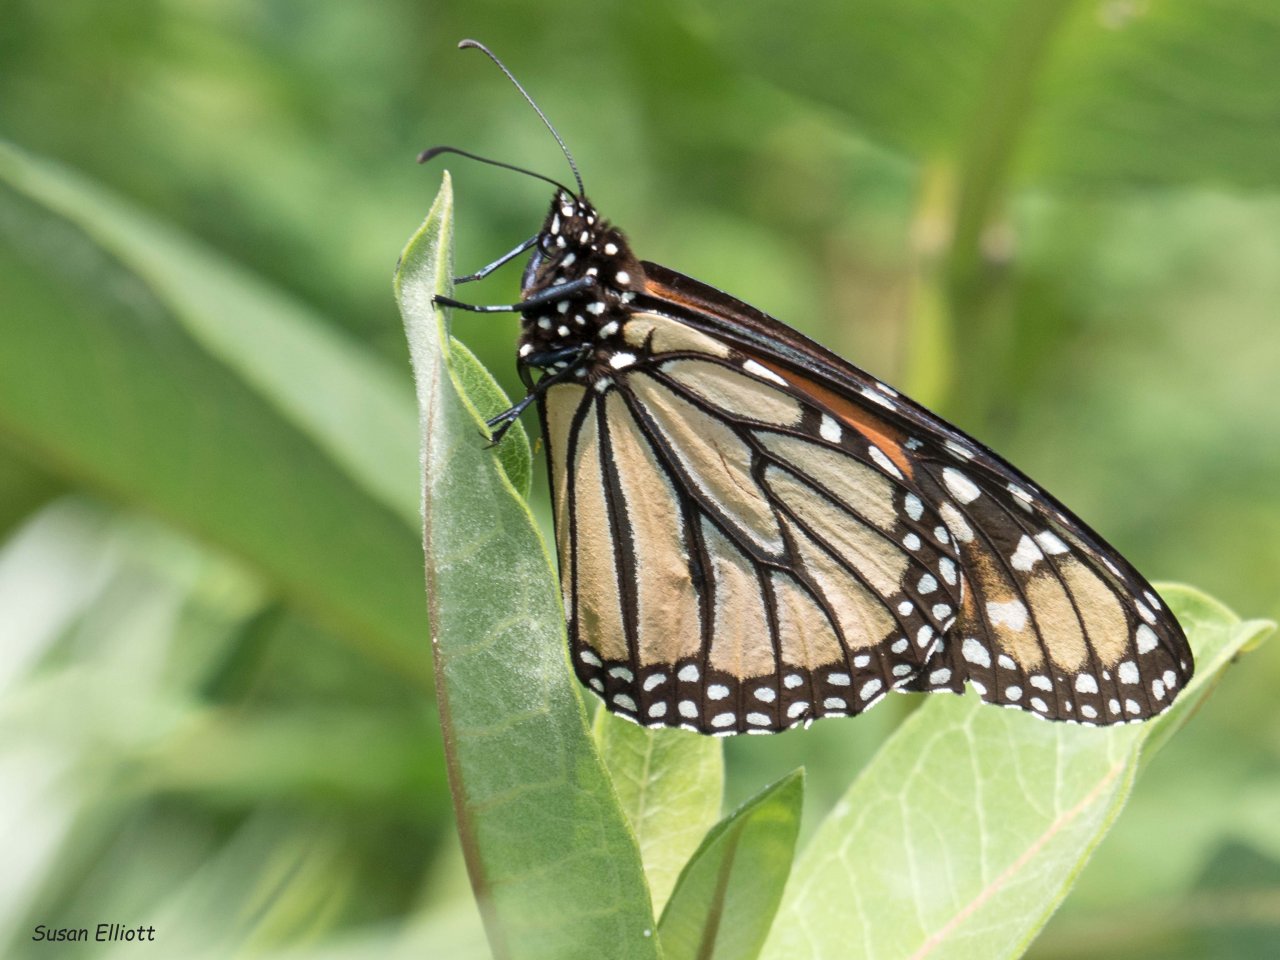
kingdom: Animalia
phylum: Arthropoda
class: Insecta
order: Lepidoptera
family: Nymphalidae
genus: Danaus
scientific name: Danaus plexippus
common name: Monarch
